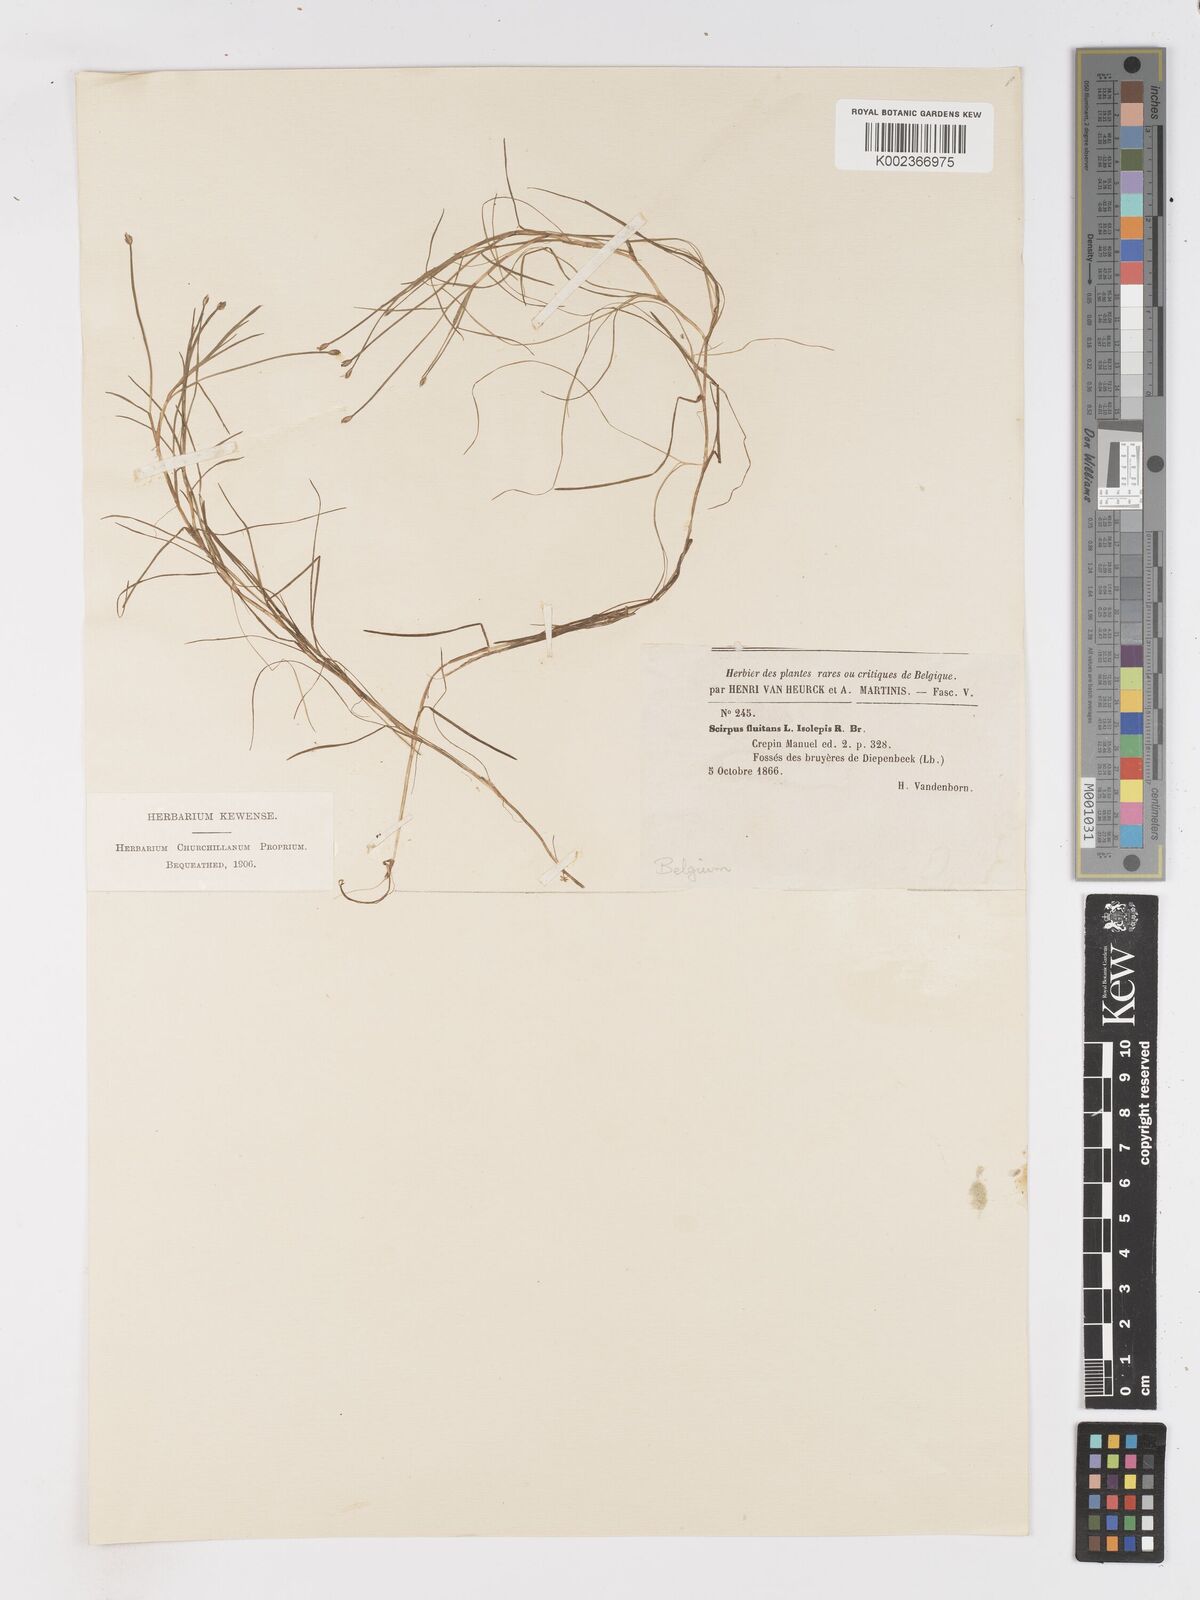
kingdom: Plantae
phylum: Tracheophyta
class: Liliopsida
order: Poales
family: Cyperaceae
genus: Isolepis
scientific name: Isolepis fluitans
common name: Floating club-rush
